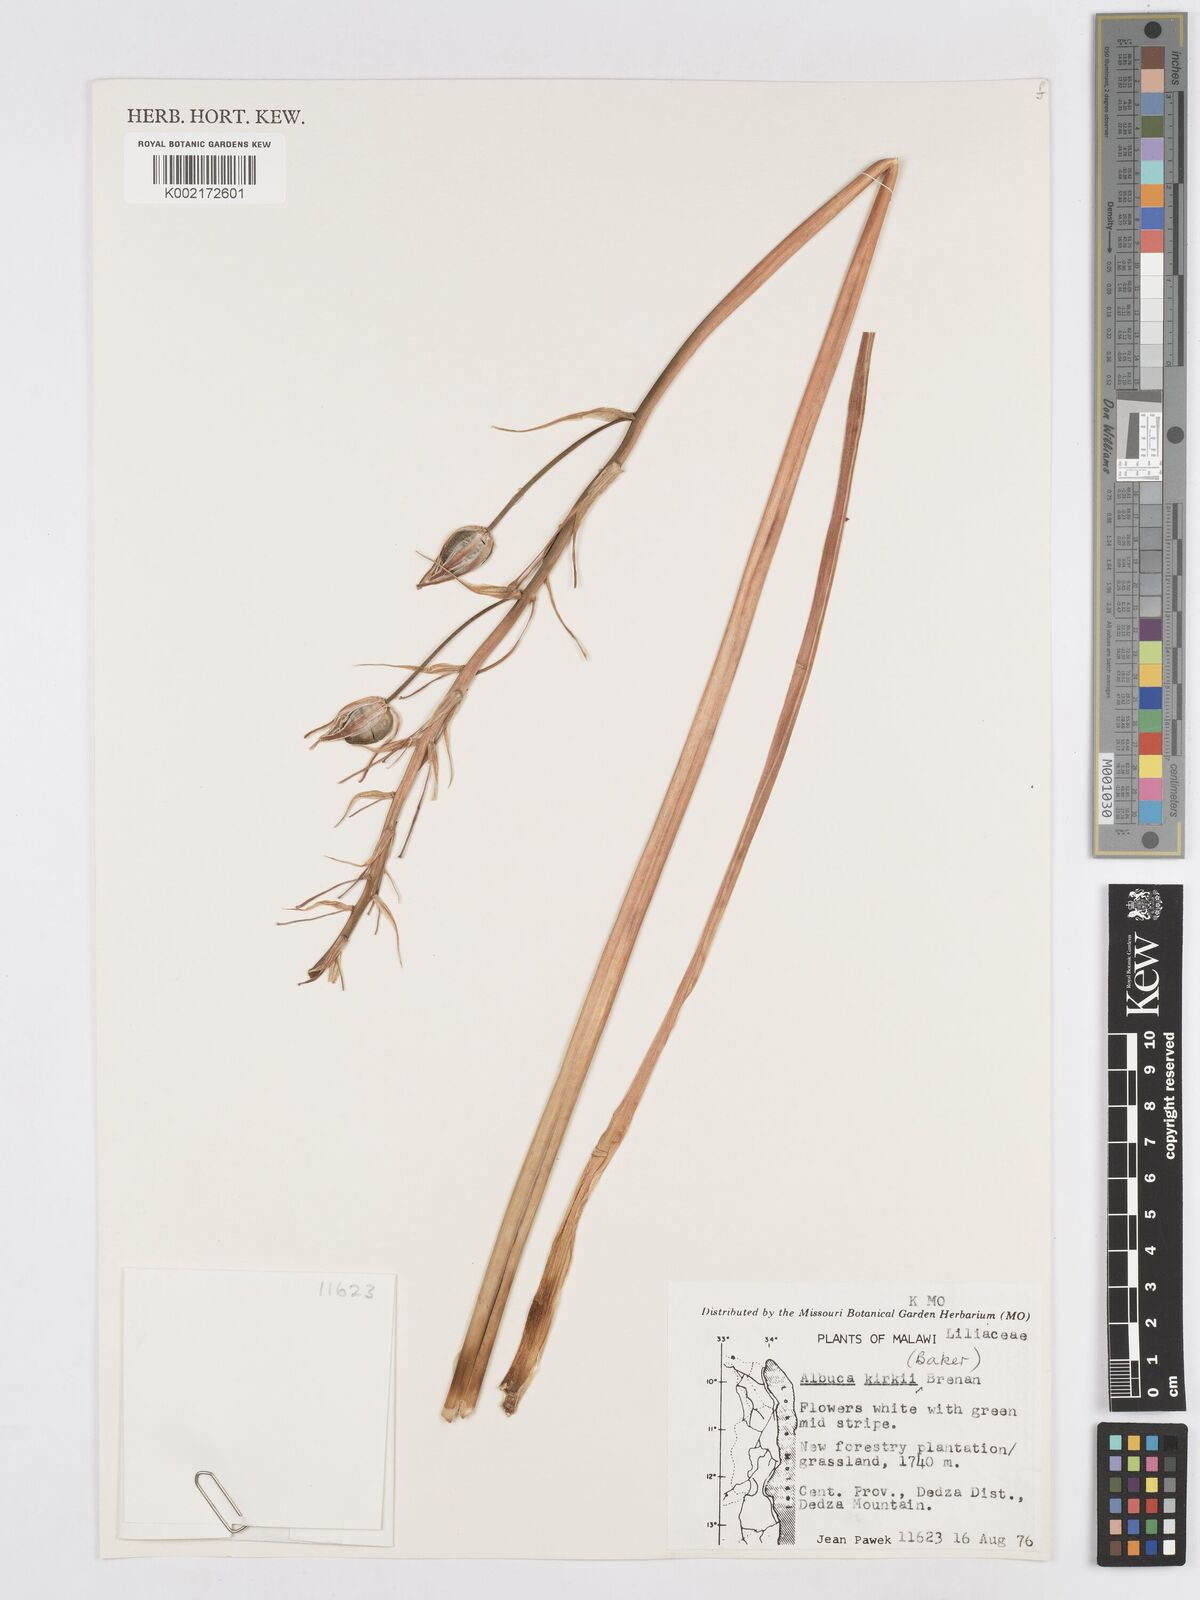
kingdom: Plantae
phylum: Tracheophyta
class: Liliopsida
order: Asparagales
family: Asparagaceae
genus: Albuca
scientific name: Albuca kirkii
